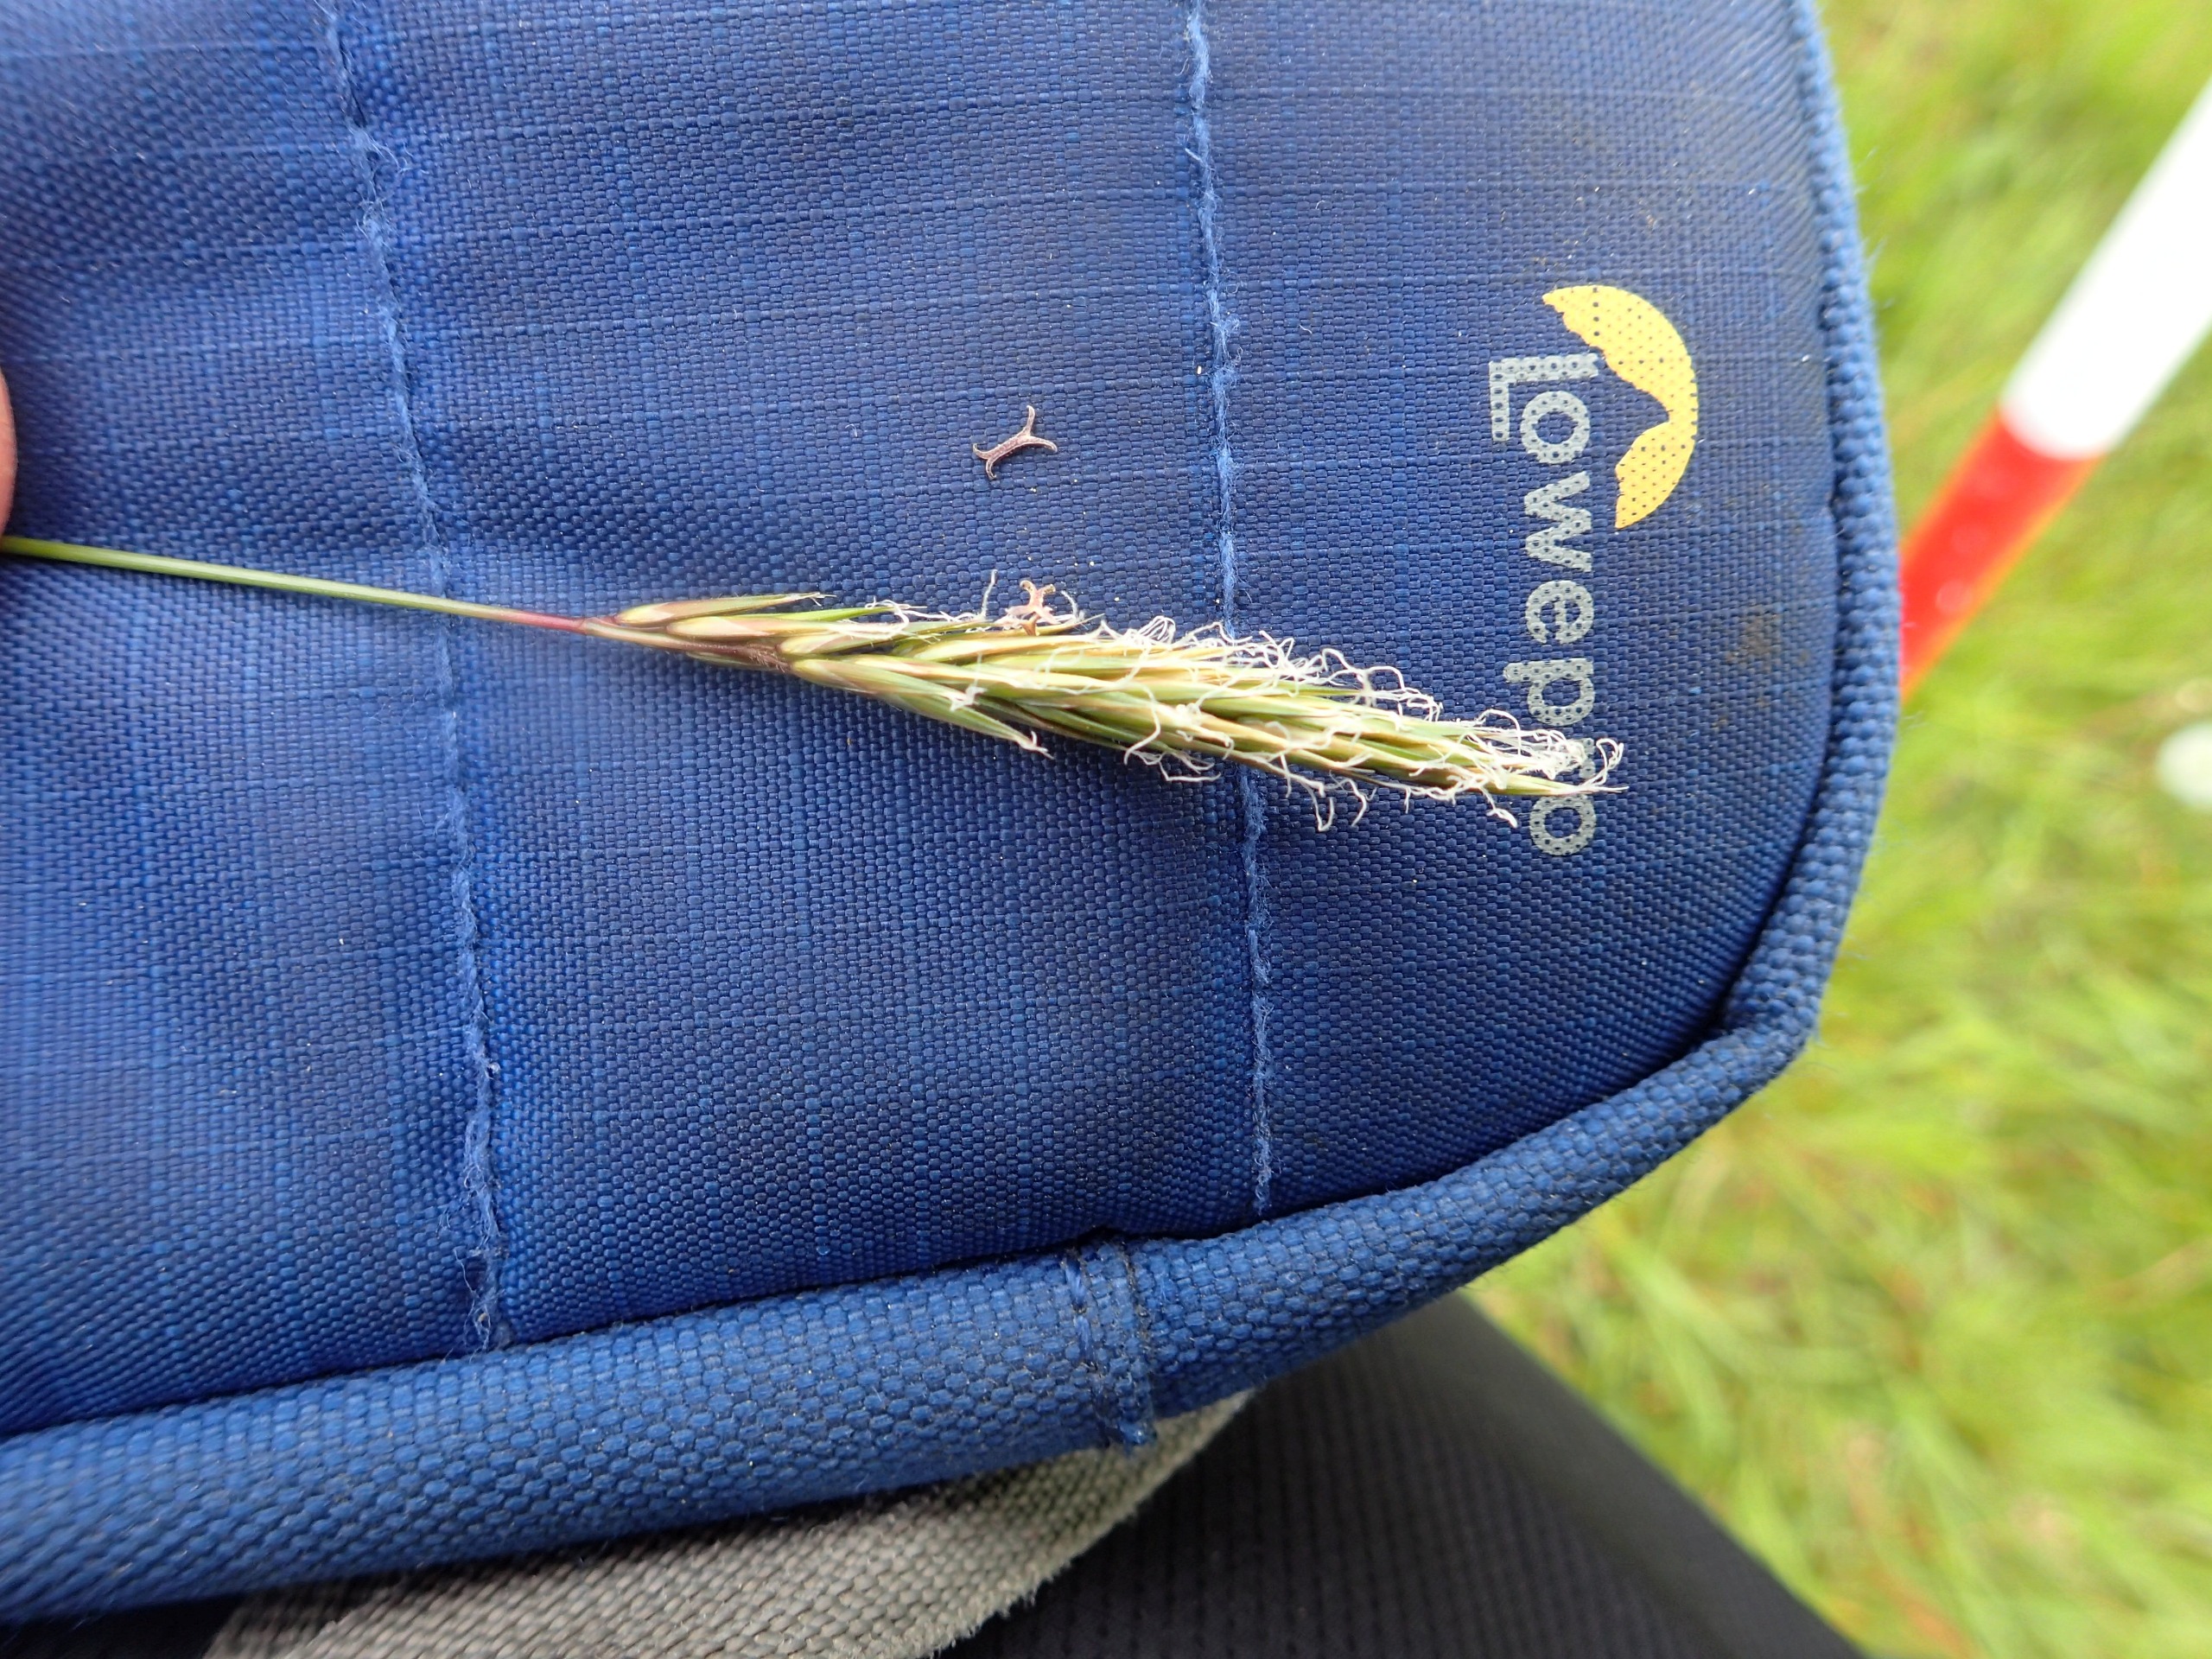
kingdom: Plantae
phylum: Tracheophyta
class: Liliopsida
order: Poales
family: Poaceae
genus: Anthoxanthum
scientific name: Anthoxanthum odoratum
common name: Vellugtende gulaks
